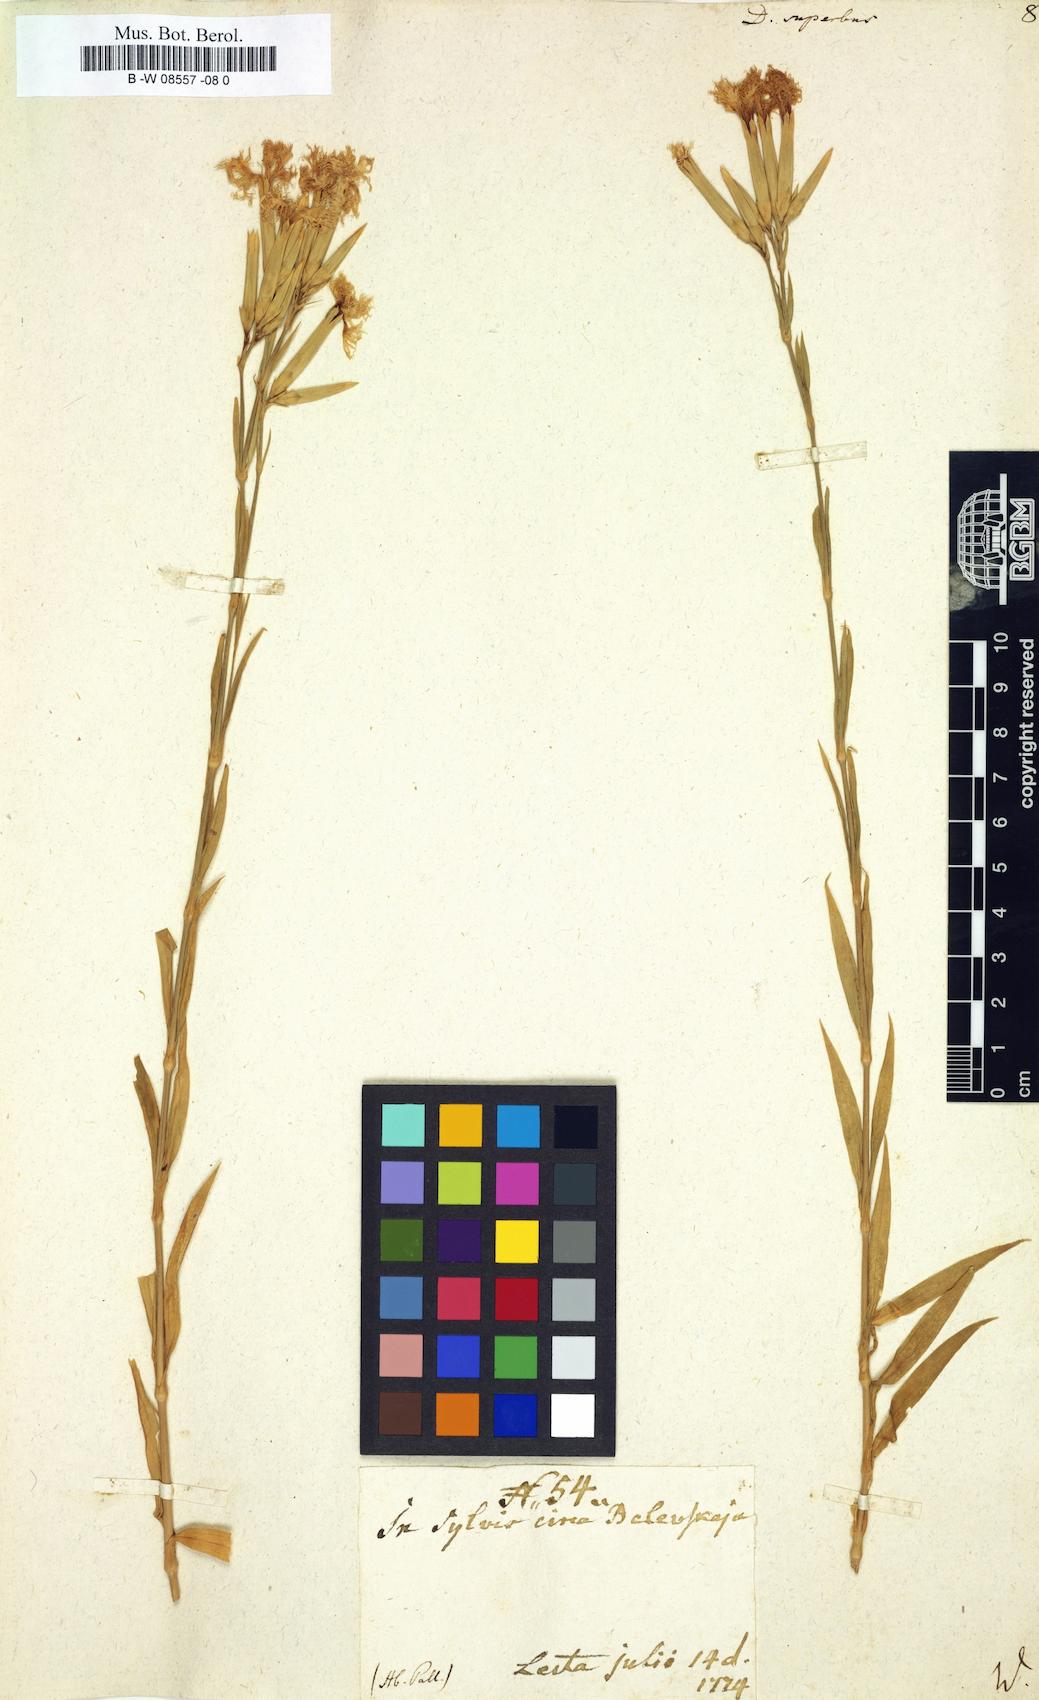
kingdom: Plantae
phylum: Tracheophyta
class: Magnoliopsida
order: Caryophyllales
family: Caryophyllaceae
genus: Dianthus
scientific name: Dianthus superbus
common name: Fringed pink
